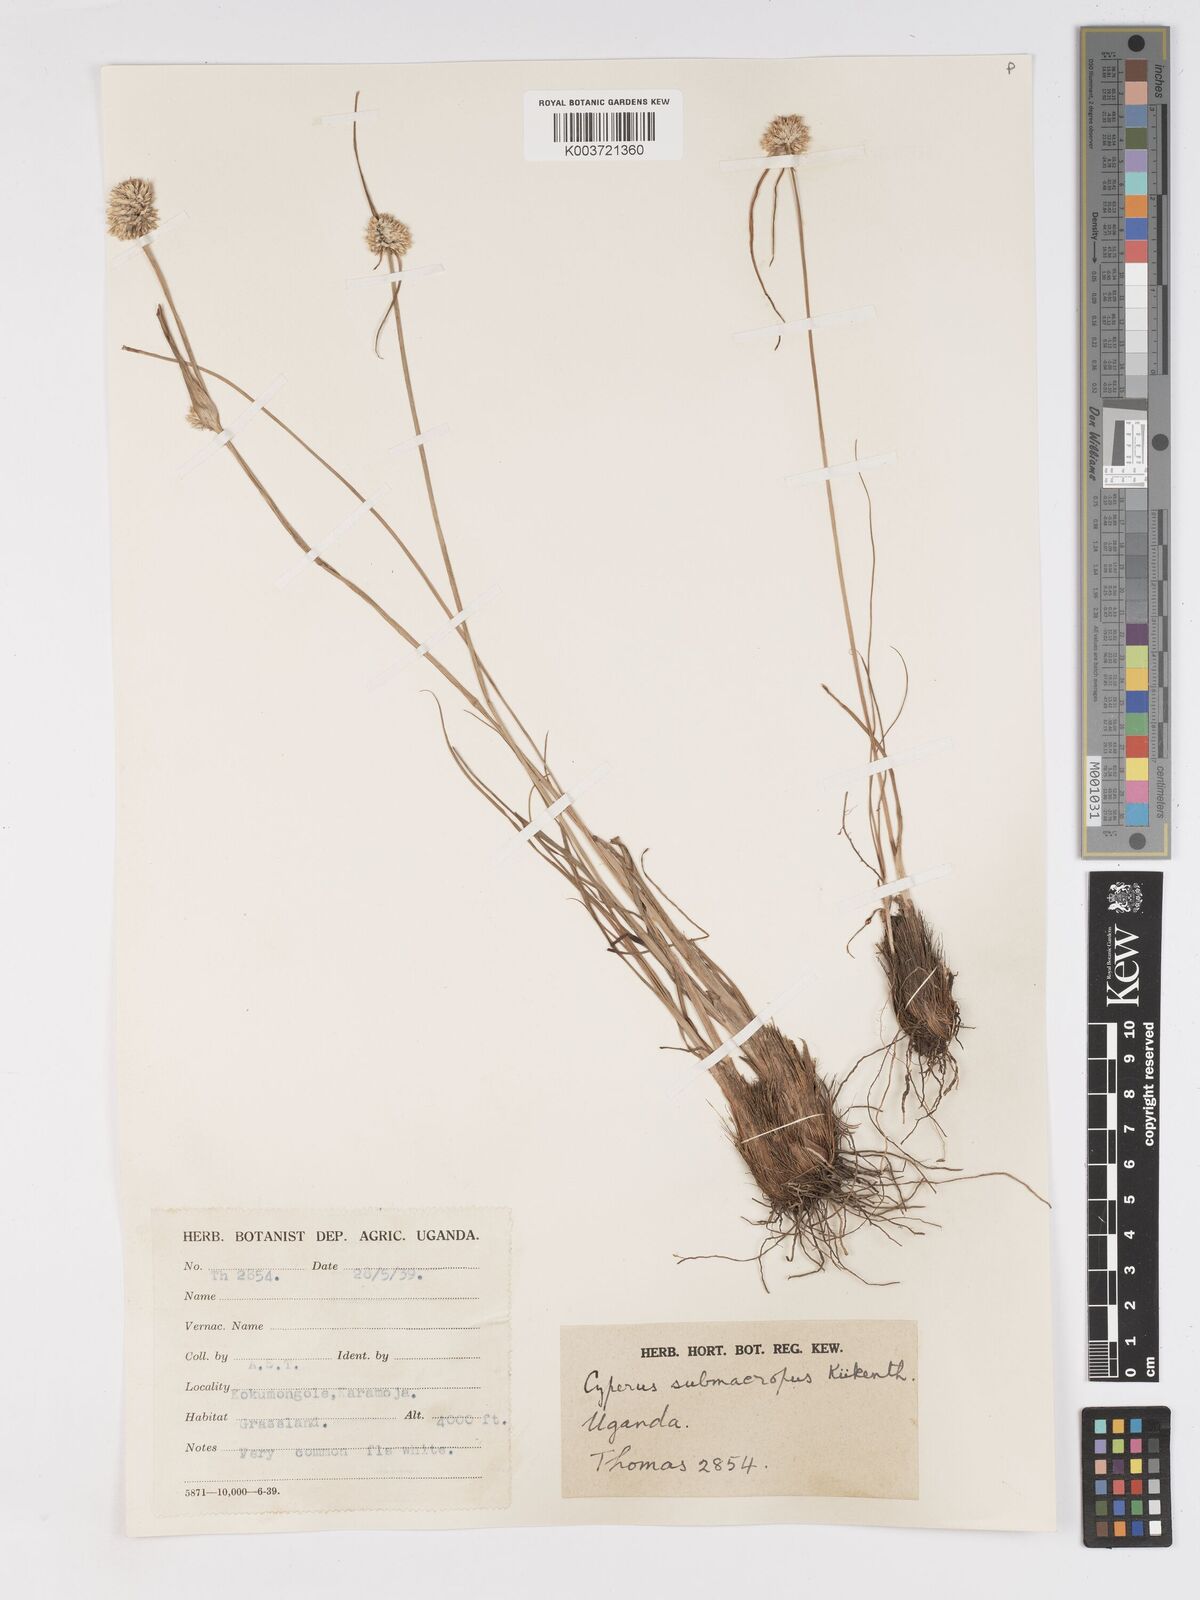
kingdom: Plantae
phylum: Tracheophyta
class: Liliopsida
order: Poales
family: Cyperaceae
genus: Cyperus
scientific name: Cyperus mollipes
